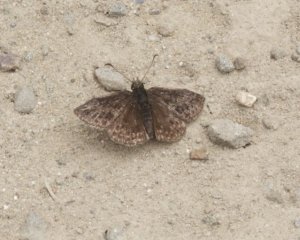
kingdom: Animalia
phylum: Arthropoda
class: Insecta
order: Lepidoptera
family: Hesperiidae
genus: Erynnis
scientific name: Erynnis icelus
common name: Dreamy Duskywing
